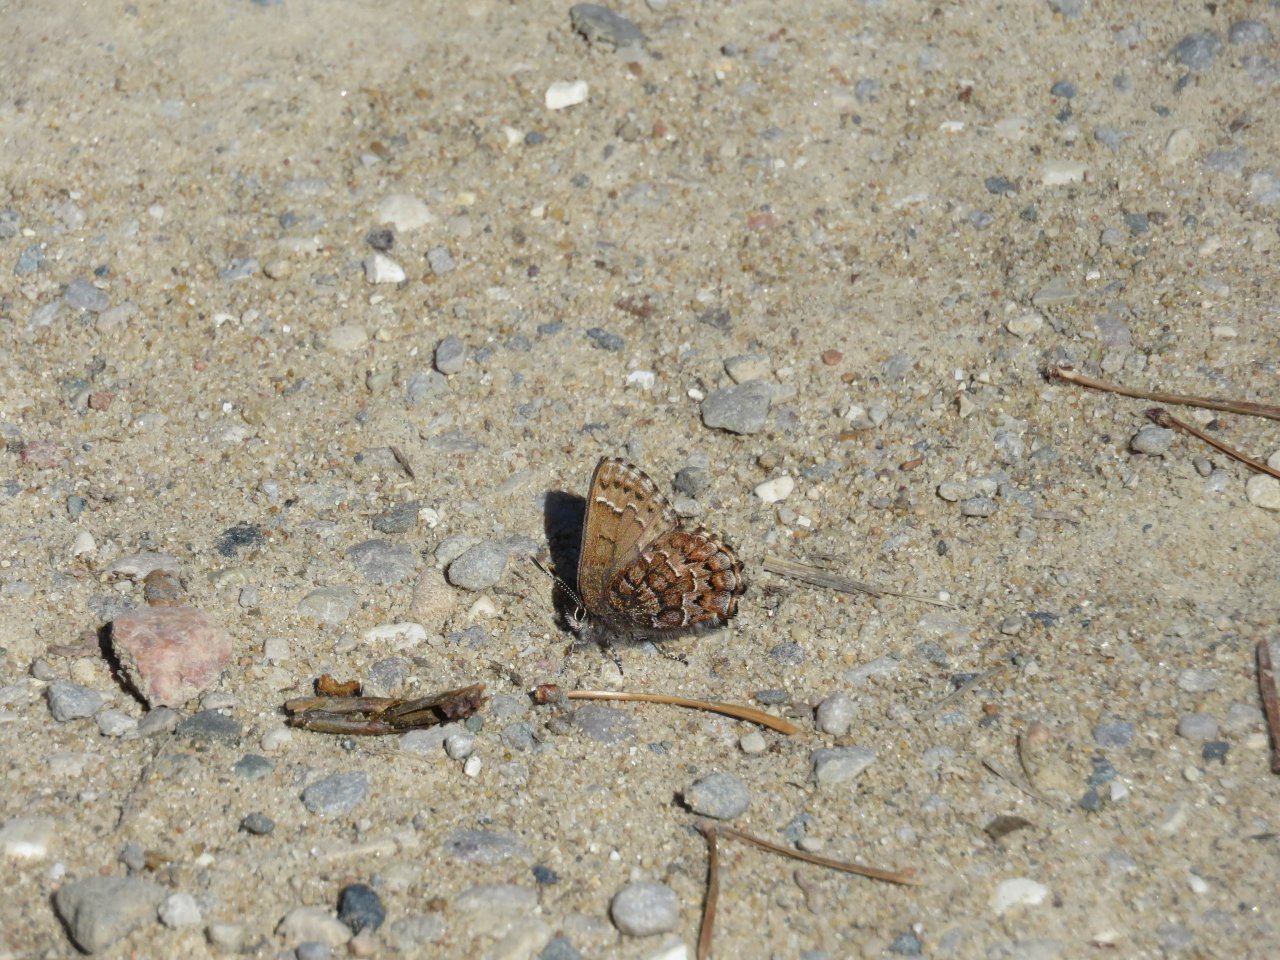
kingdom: Animalia
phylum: Arthropoda
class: Insecta
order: Lepidoptera
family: Lycaenidae
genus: Incisalia
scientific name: Incisalia niphon
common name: Eastern Pine Elfin
